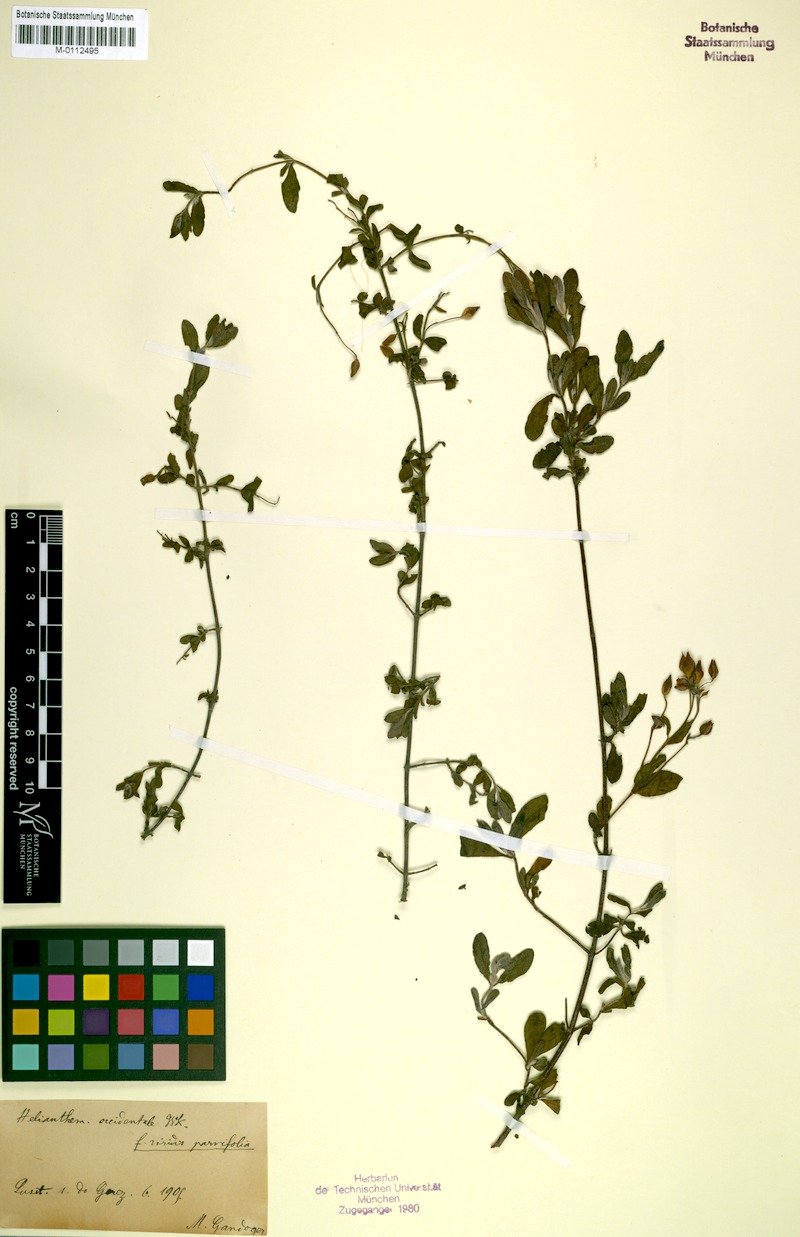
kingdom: Plantae
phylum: Tracheophyta
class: Magnoliopsida
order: Malvales
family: Cistaceae
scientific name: Cistaceae
